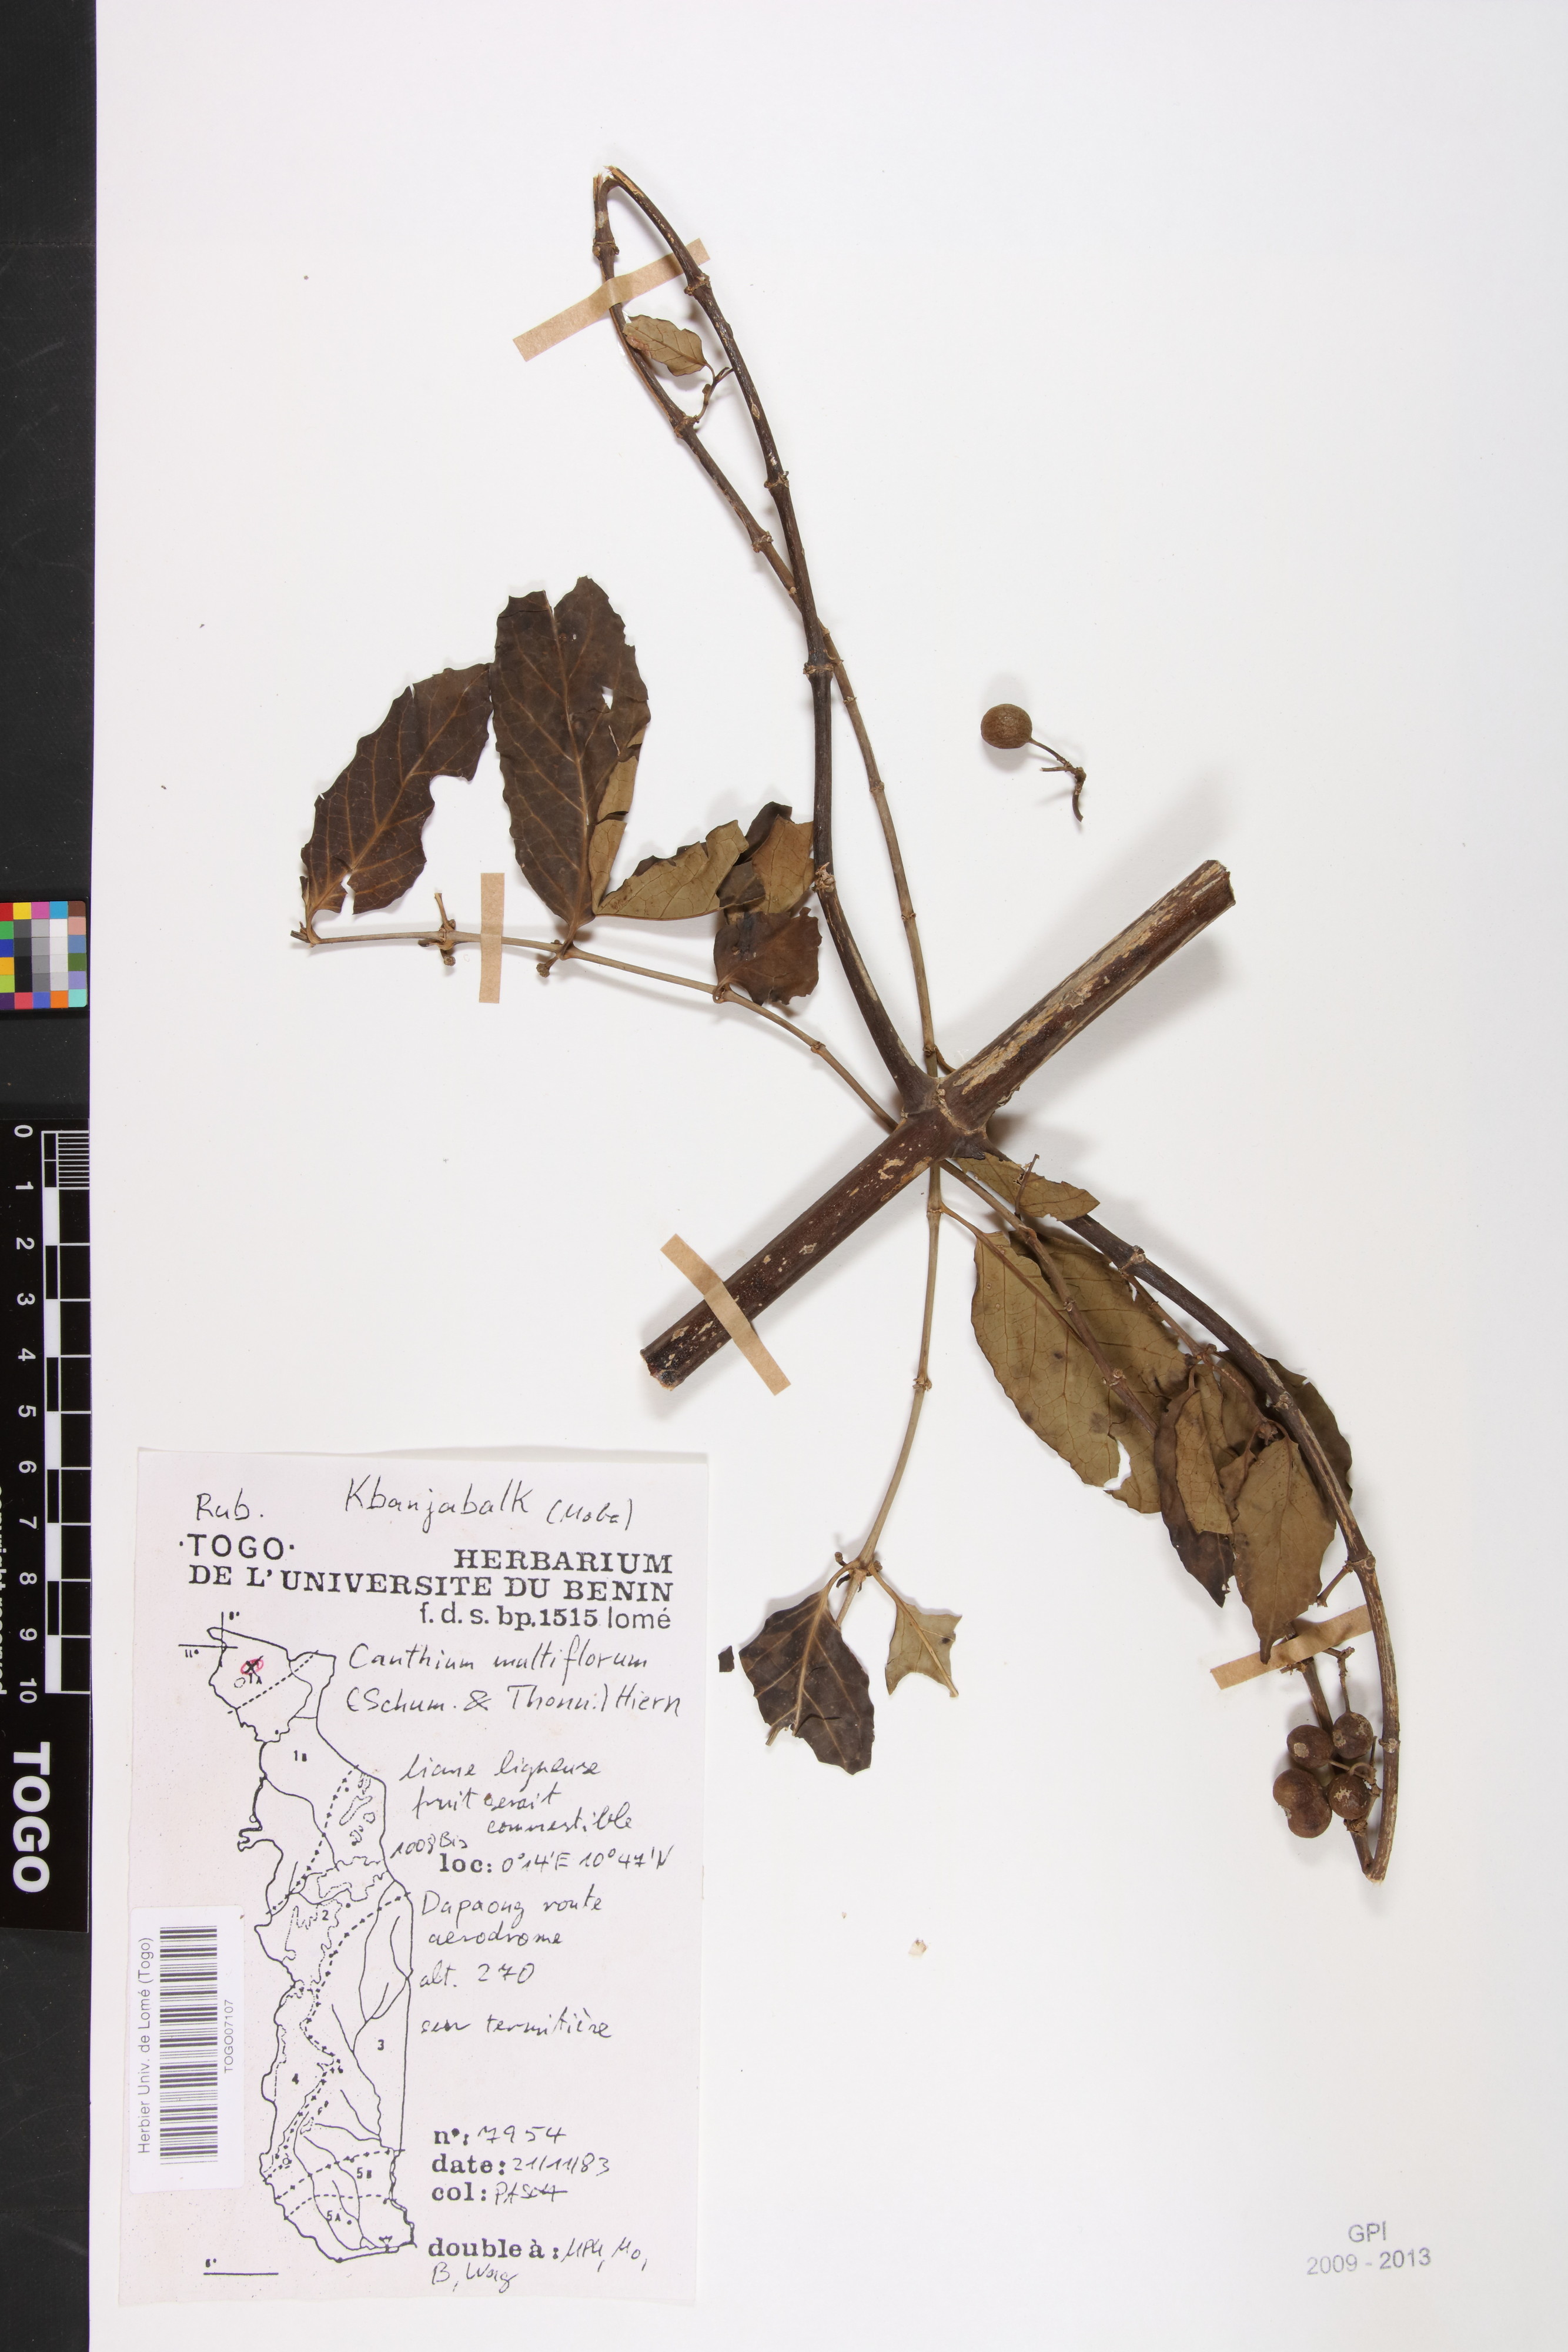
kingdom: Plantae
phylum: Tracheophyta
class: Magnoliopsida
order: Gentianales
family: Rubiaceae
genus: Keetia
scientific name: Keetia multiflora
